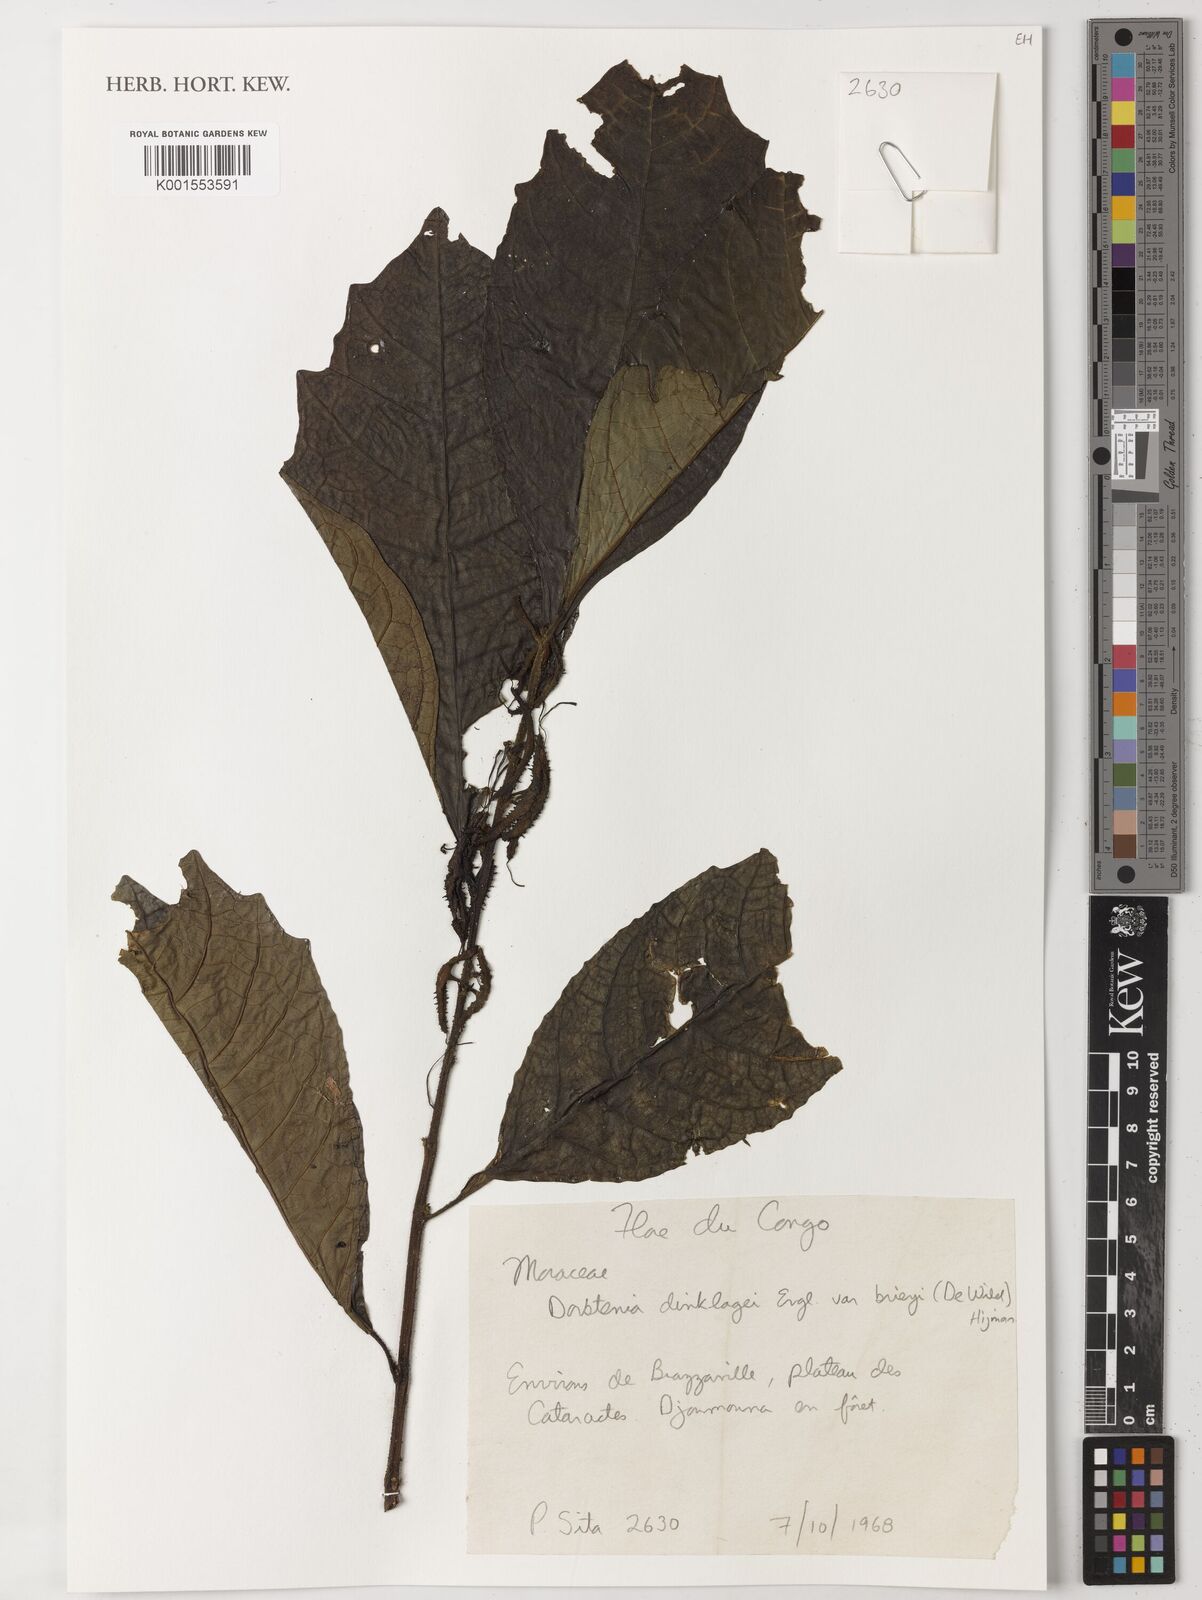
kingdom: Plantae
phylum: Tracheophyta
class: Magnoliopsida
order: Rosales
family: Moraceae
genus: Dorstenia
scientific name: Dorstenia dinklagei
